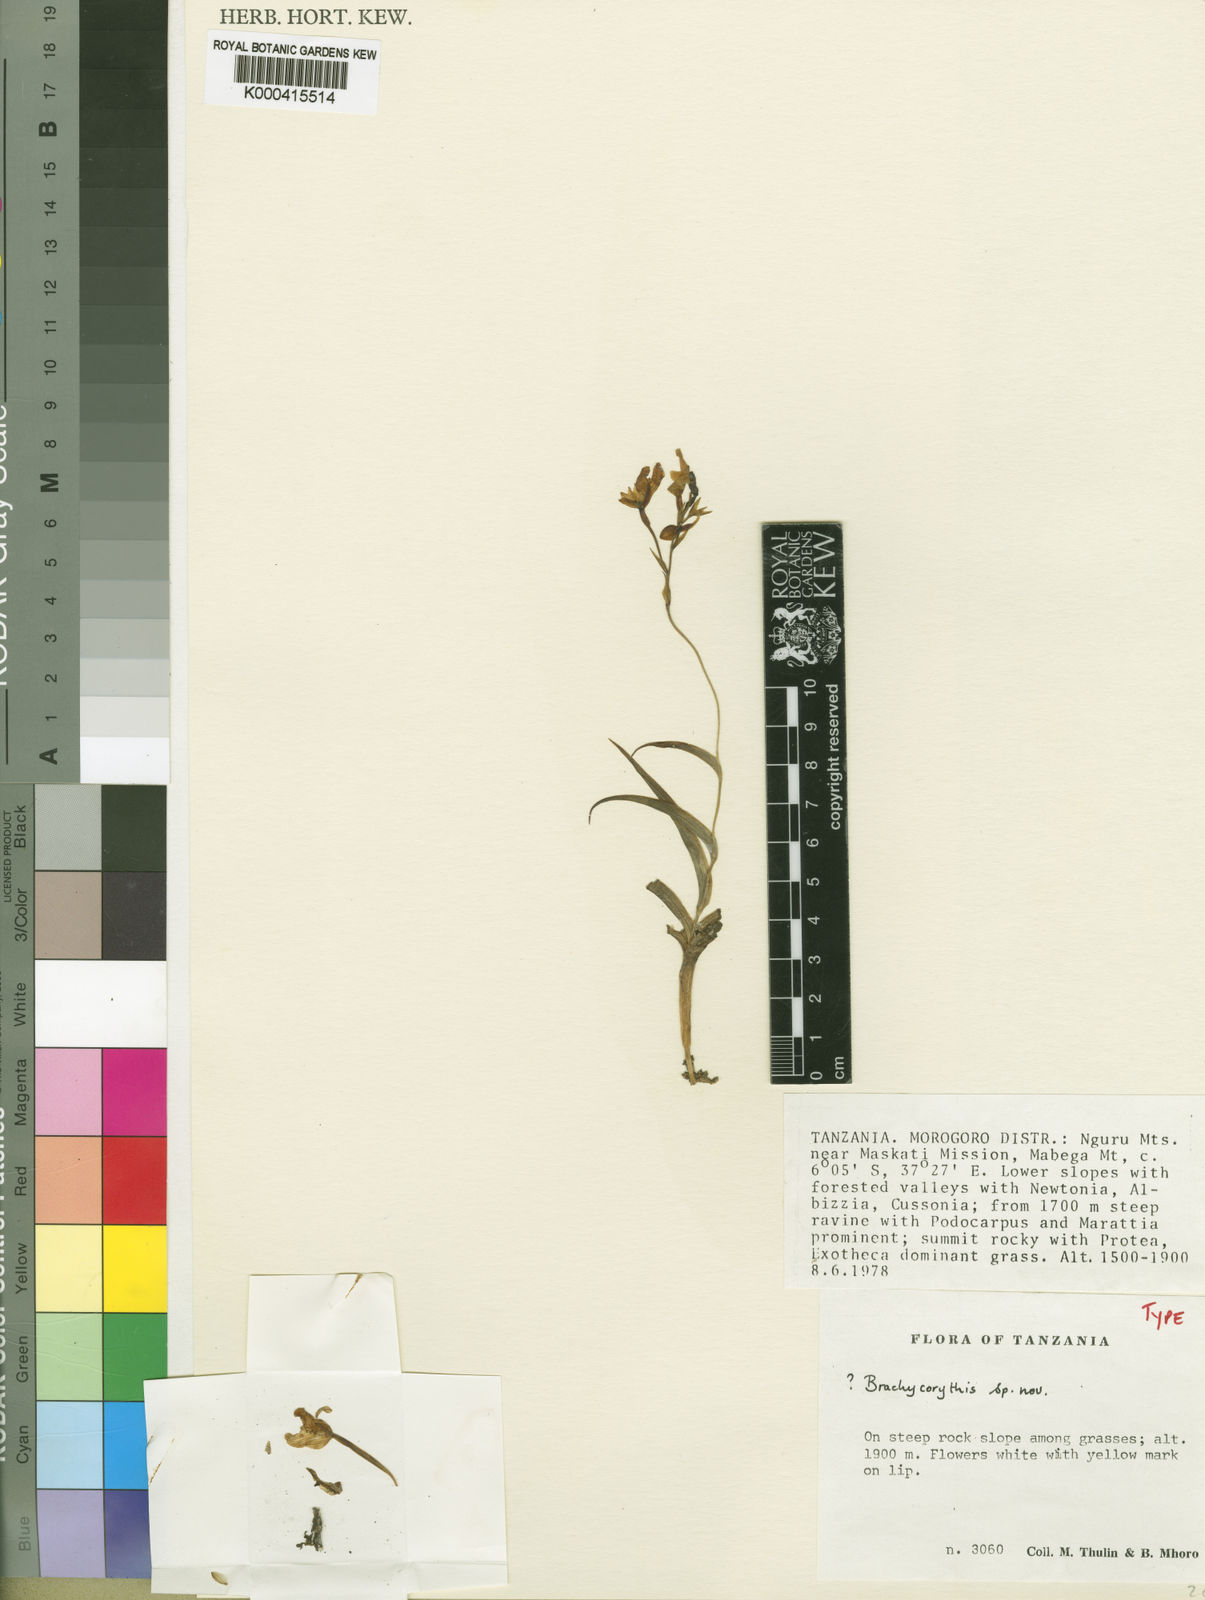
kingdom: Plantae
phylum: Tracheophyta
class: Liliopsida
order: Asparagales
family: Orchidaceae
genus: Thulinia
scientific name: Thulinia albolutea
